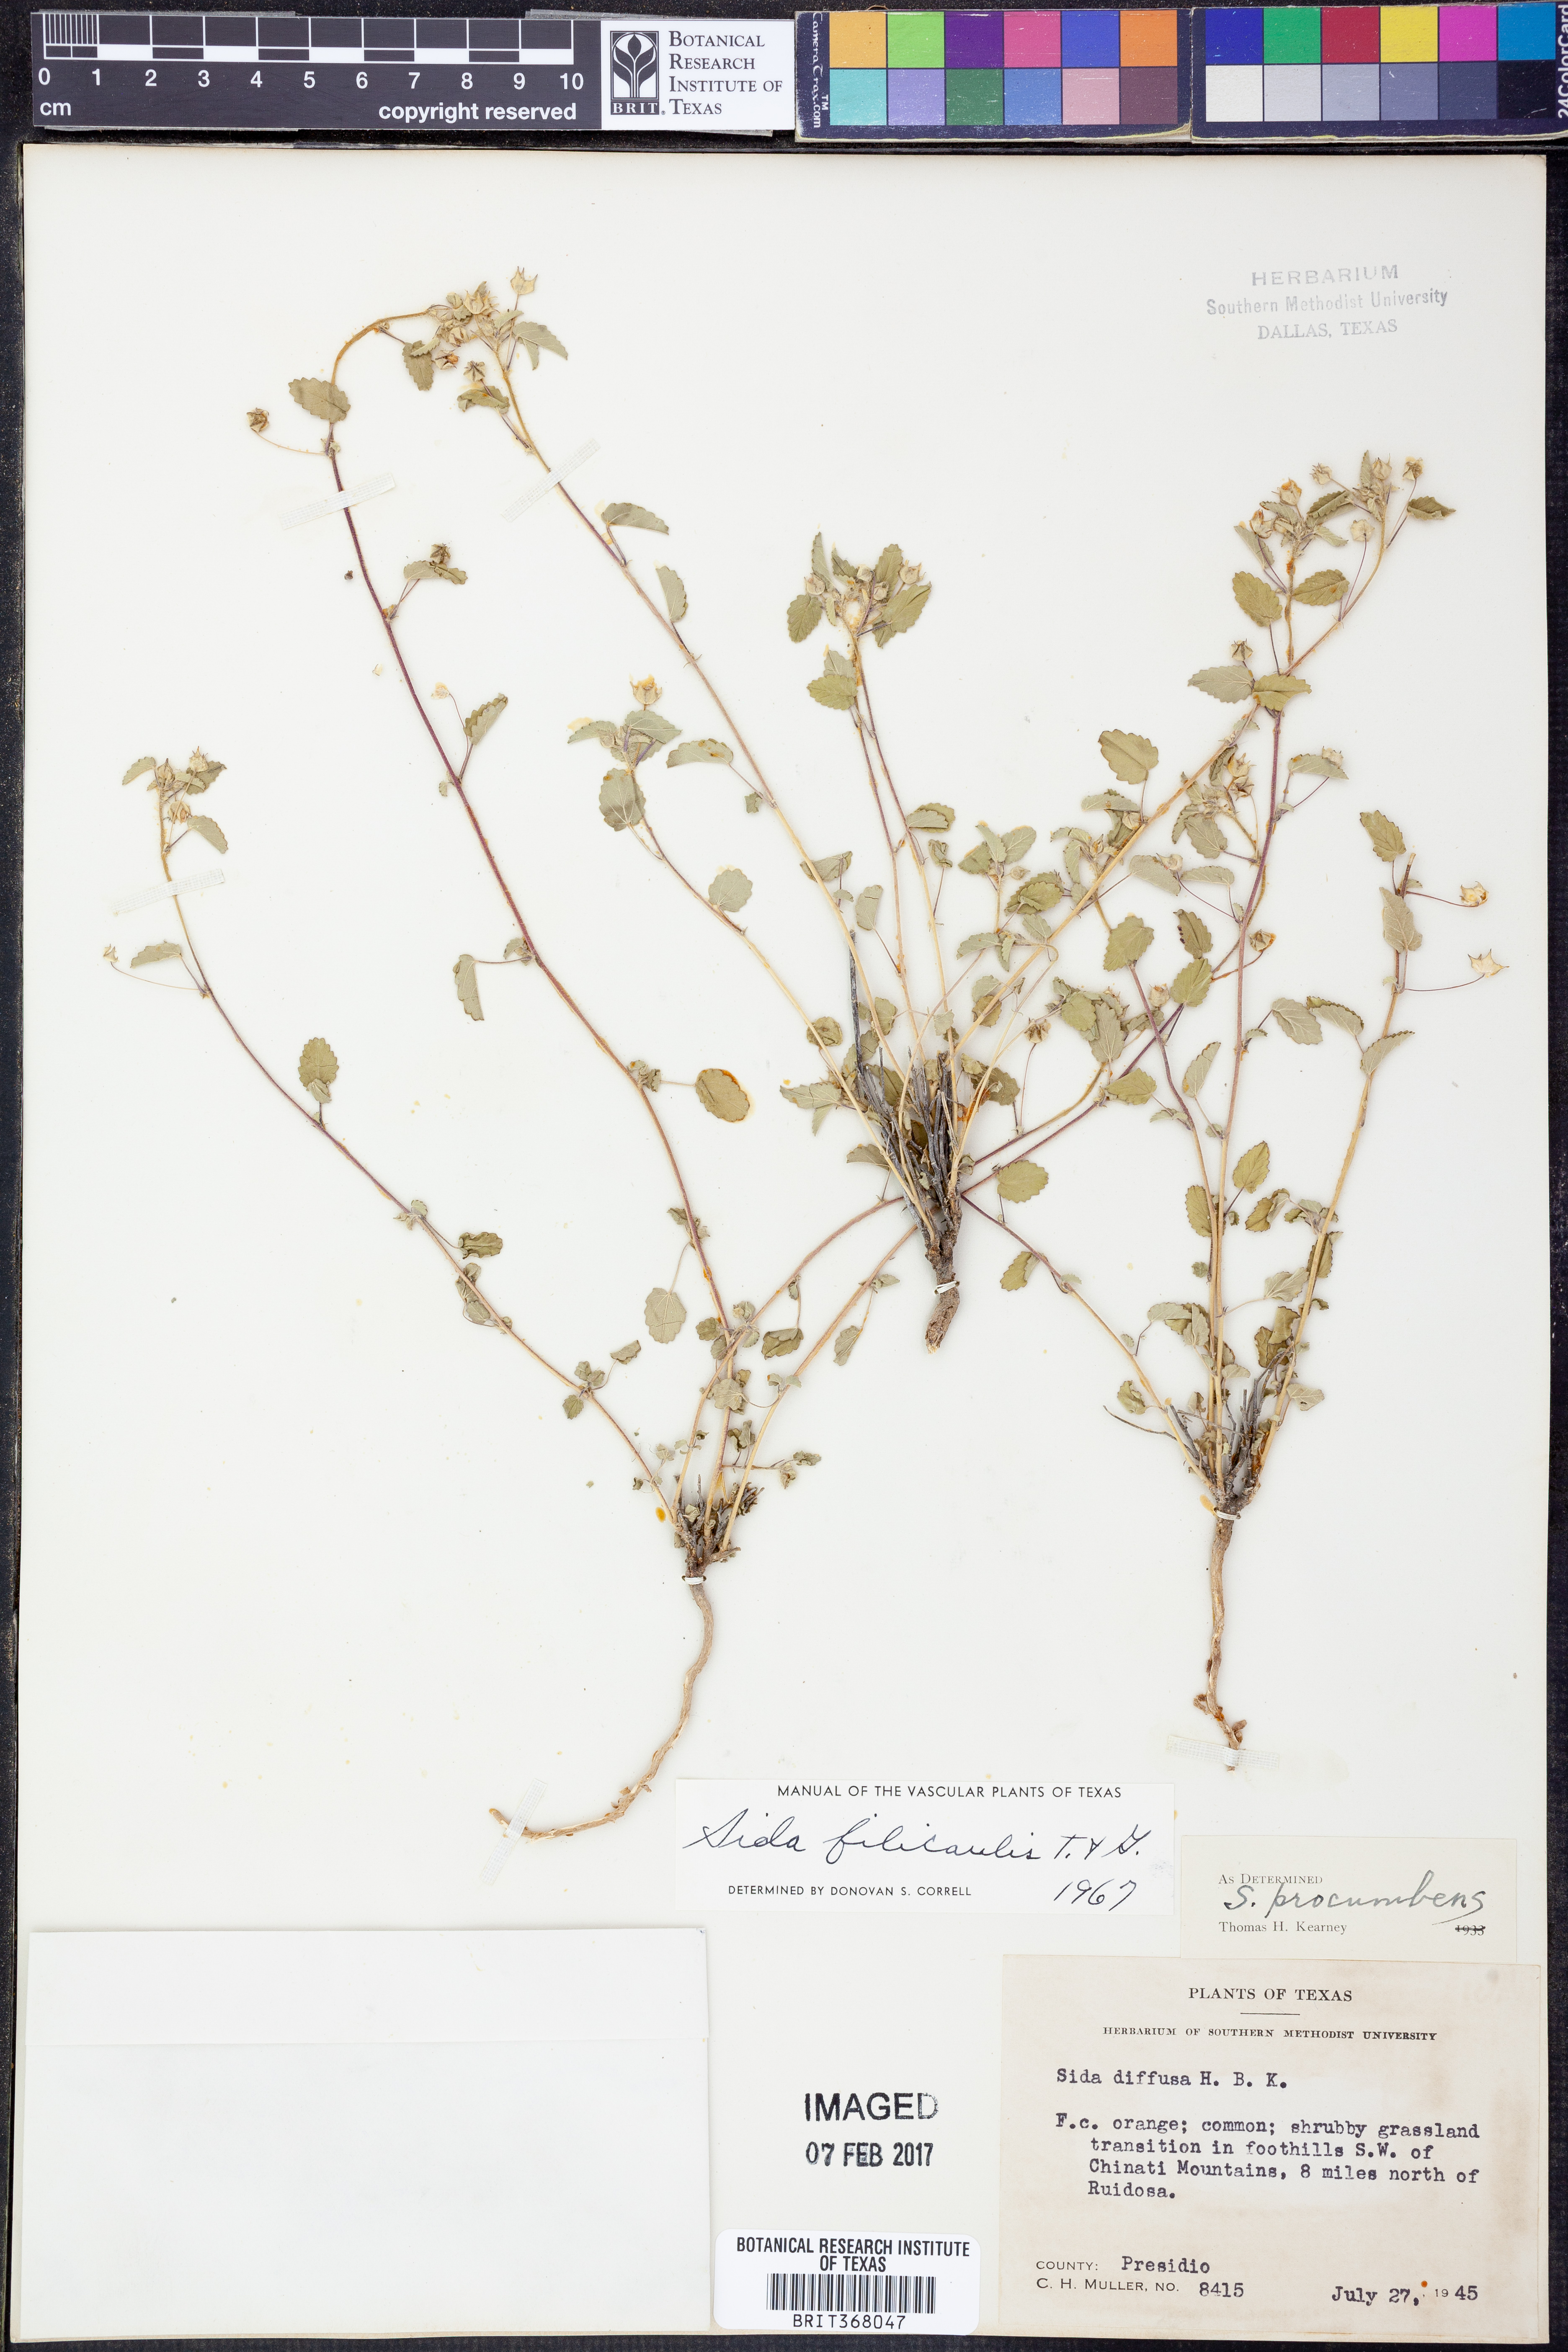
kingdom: Plantae
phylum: Tracheophyta
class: Magnoliopsida
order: Malvales
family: Malvaceae
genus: Sida
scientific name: Sida abutilifolia
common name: Spreading fanpetals
